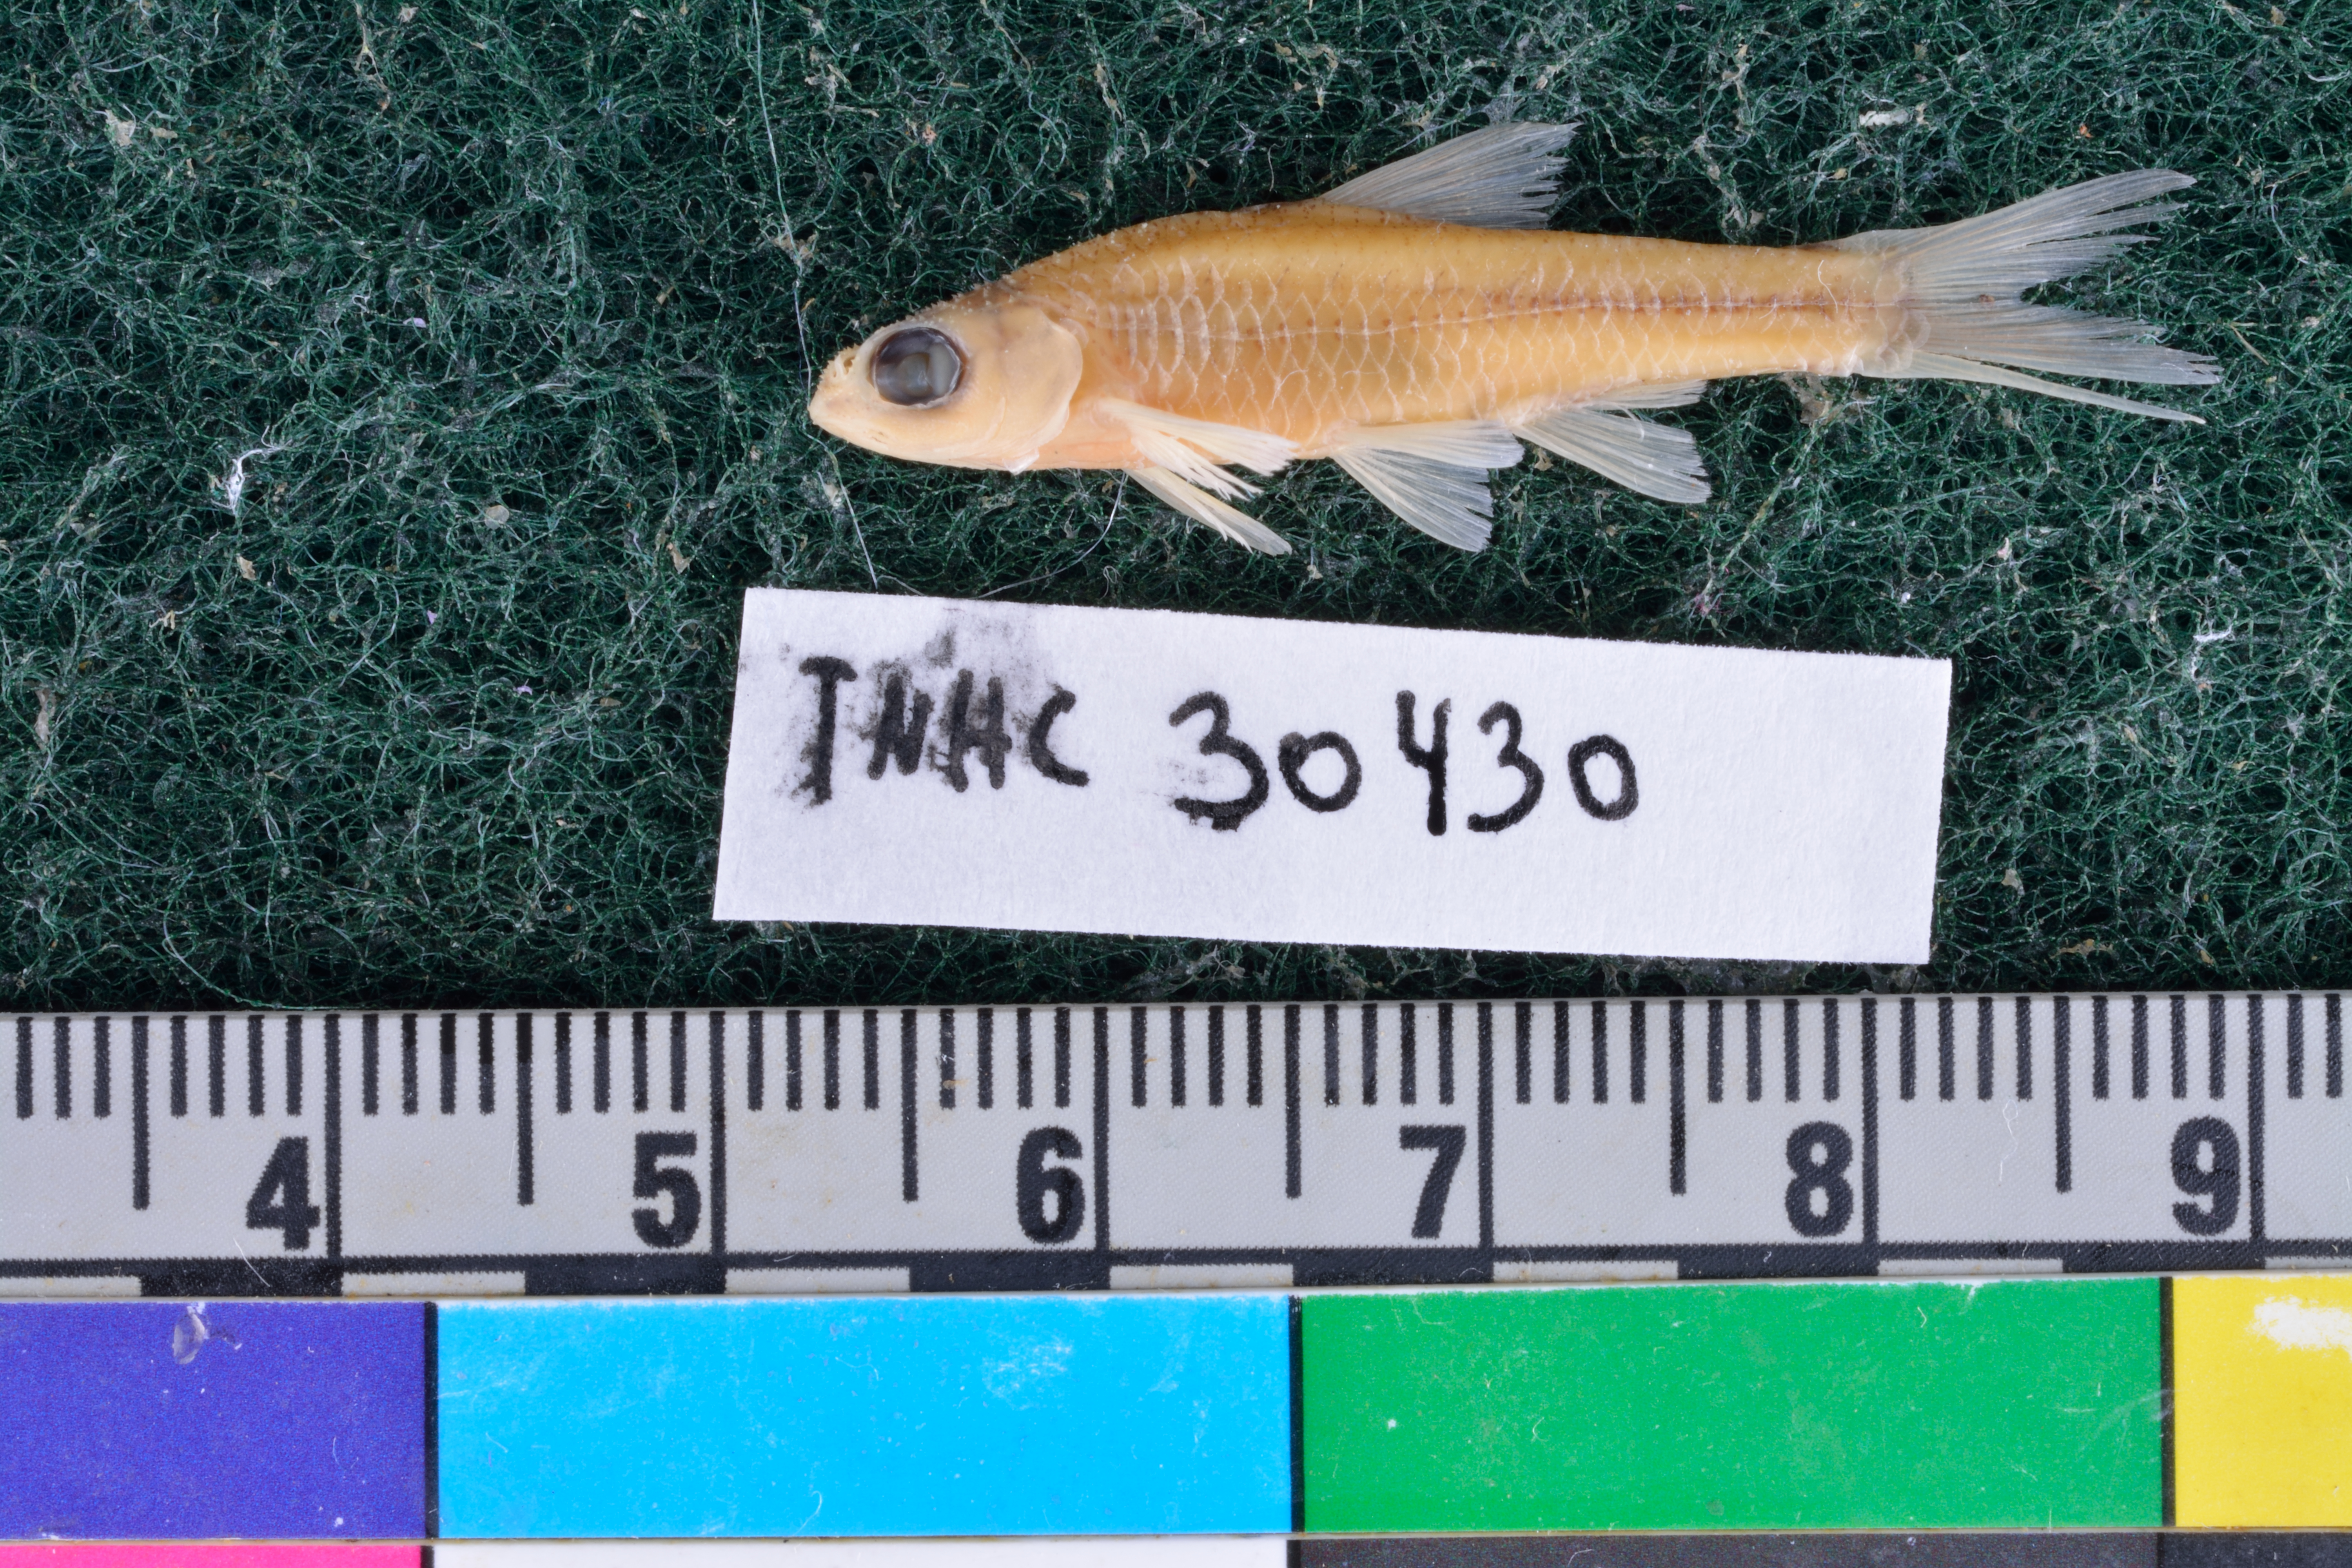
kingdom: Animalia
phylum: Chordata
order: Cypriniformes
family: Cyprinidae
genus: Notropis
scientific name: Notropis volucellus
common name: Mimic shiner
